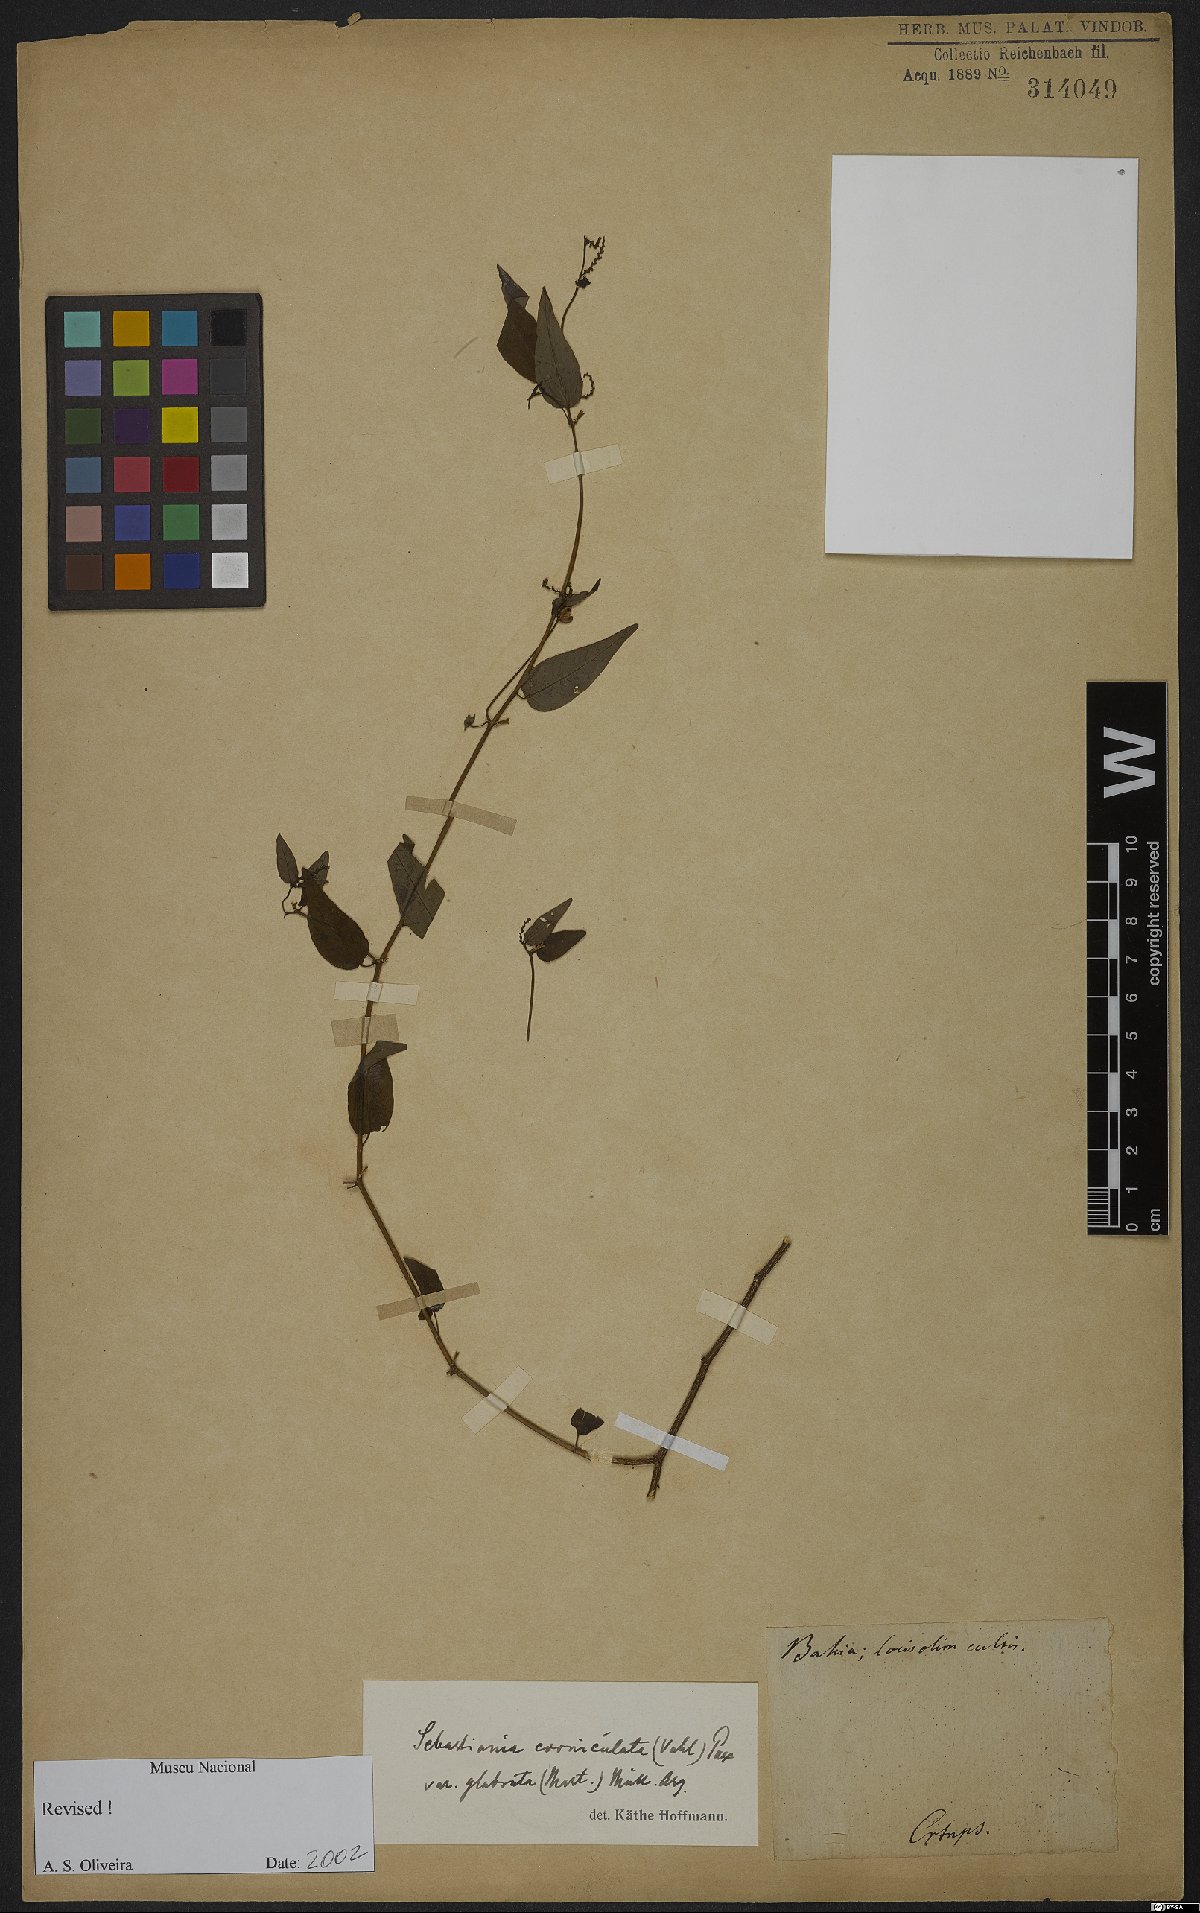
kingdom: Plantae
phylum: Tracheophyta
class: Magnoliopsida
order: Malpighiales
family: Euphorbiaceae
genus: Gymnanthes
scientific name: Gymnanthes glabrata
